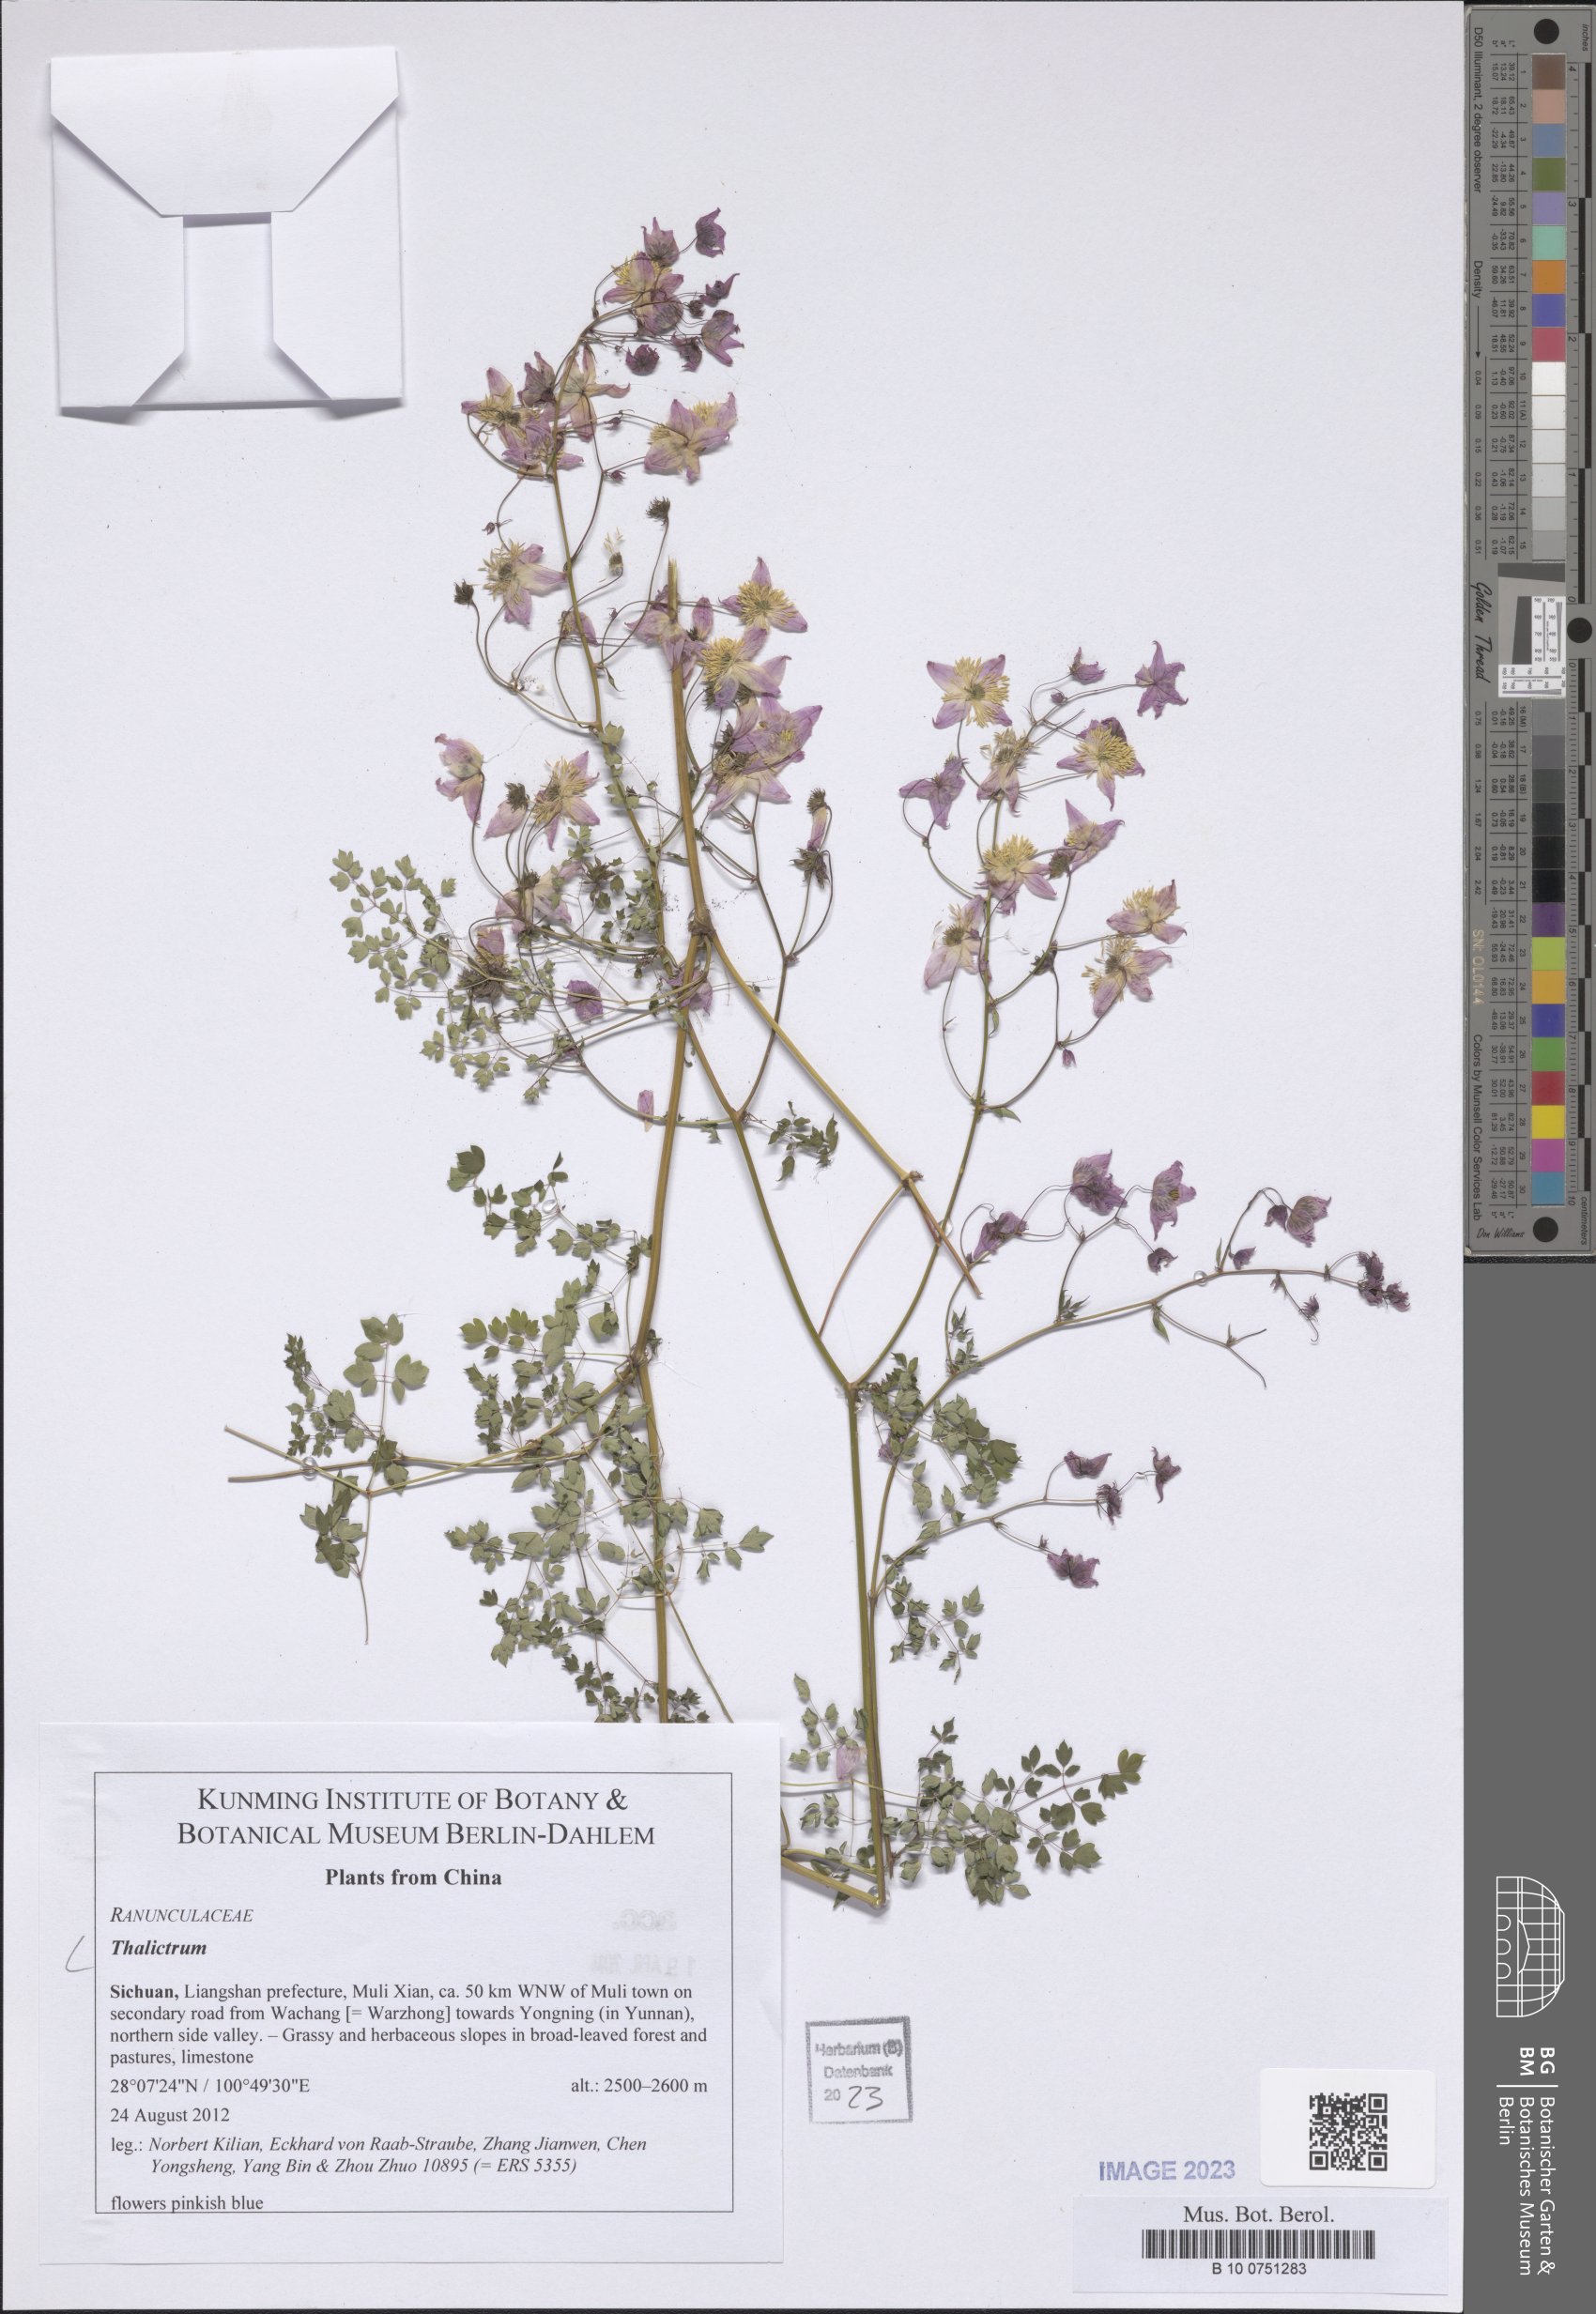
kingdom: Plantae
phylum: Tracheophyta
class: Magnoliopsida
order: Ranunculales
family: Ranunculaceae
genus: Thalictrum
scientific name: Thalictrum
